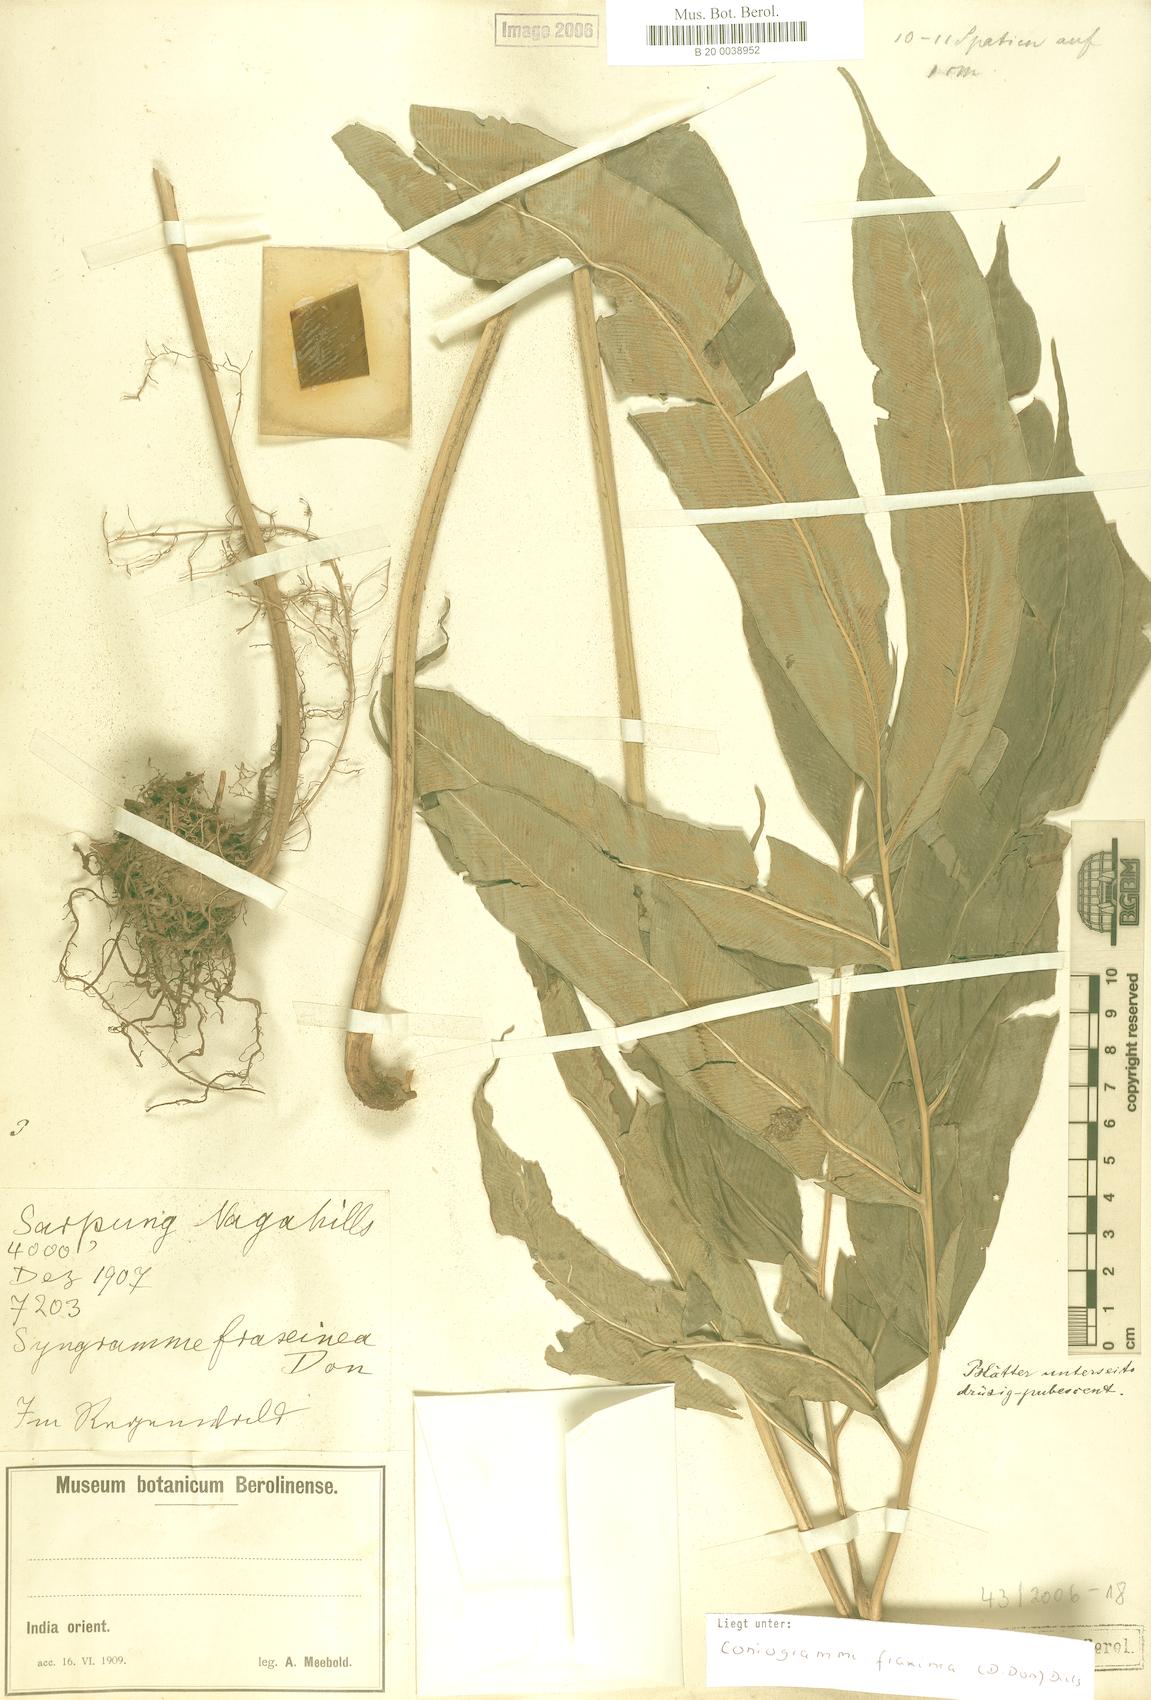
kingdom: Plantae
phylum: Tracheophyta
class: Polypodiopsida
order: Polypodiales
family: Pteridaceae
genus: Coniogramme
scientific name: Coniogramme fraxinea
